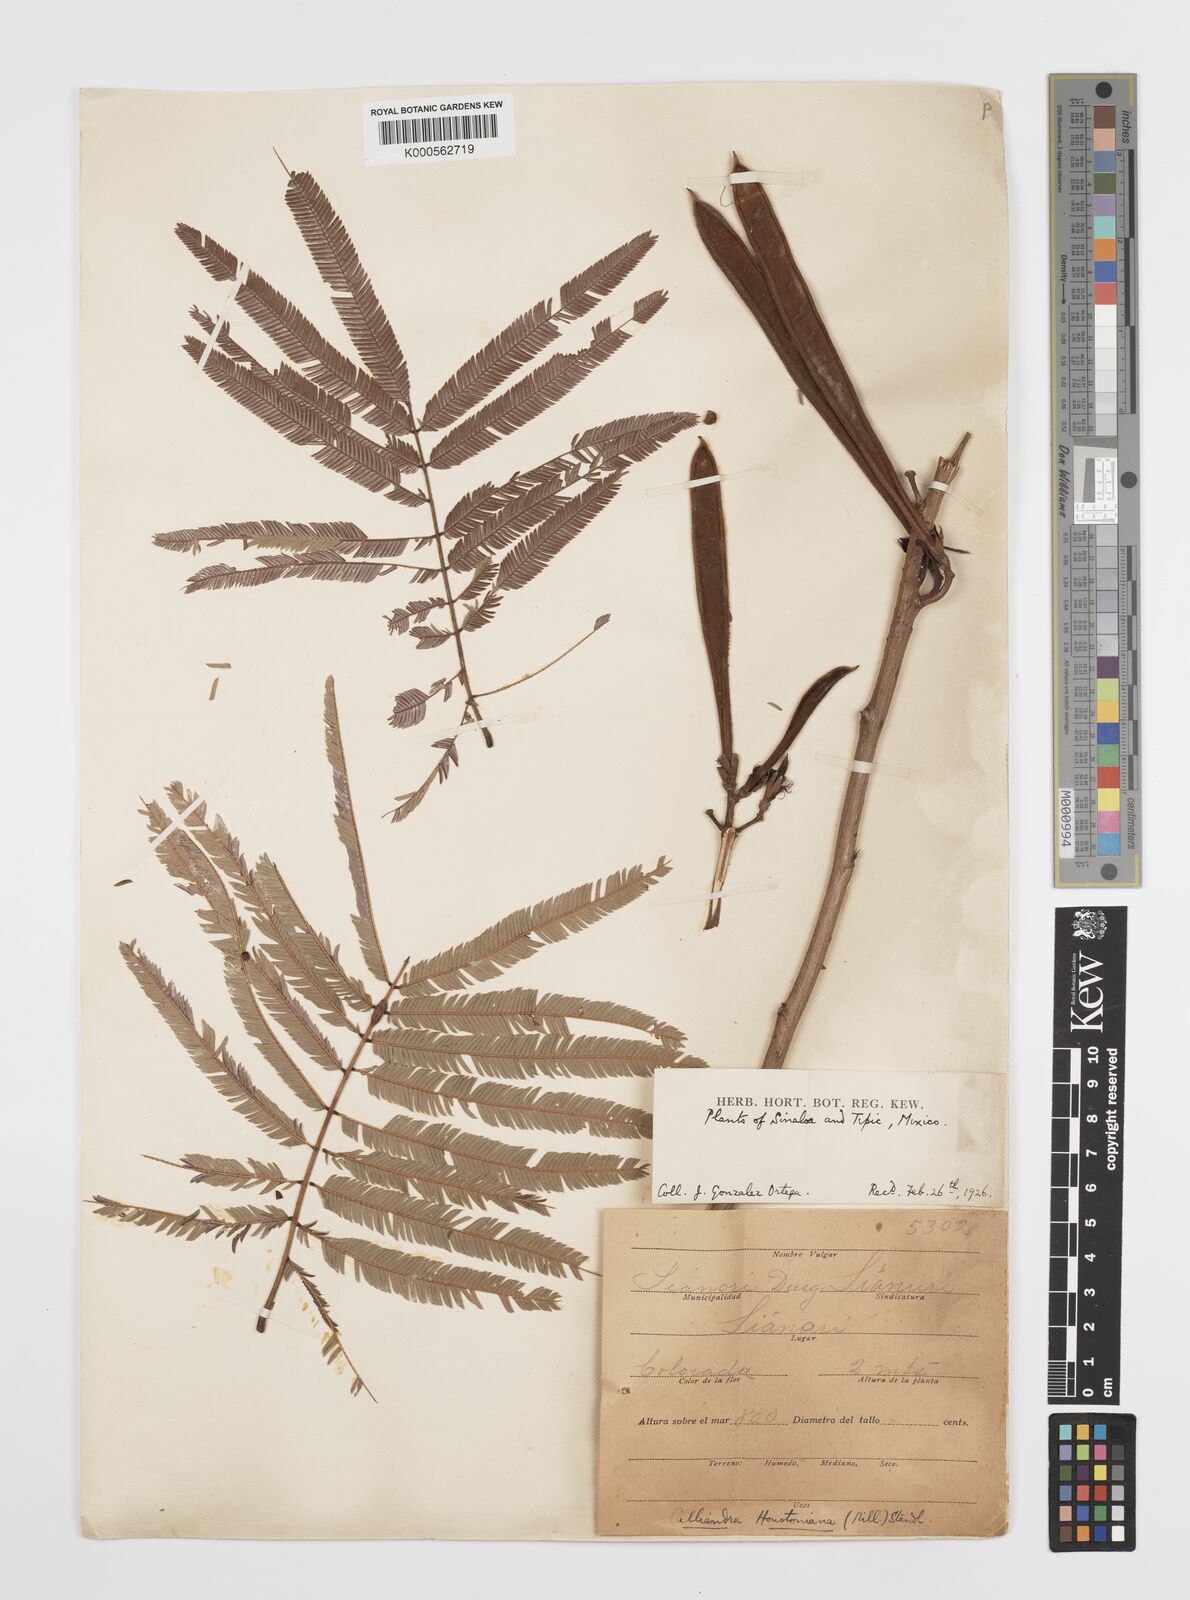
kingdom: Plantae
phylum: Tracheophyta
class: Magnoliopsida
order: Fabales
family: Fabaceae
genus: Calliandra
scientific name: Calliandra houstoniana
